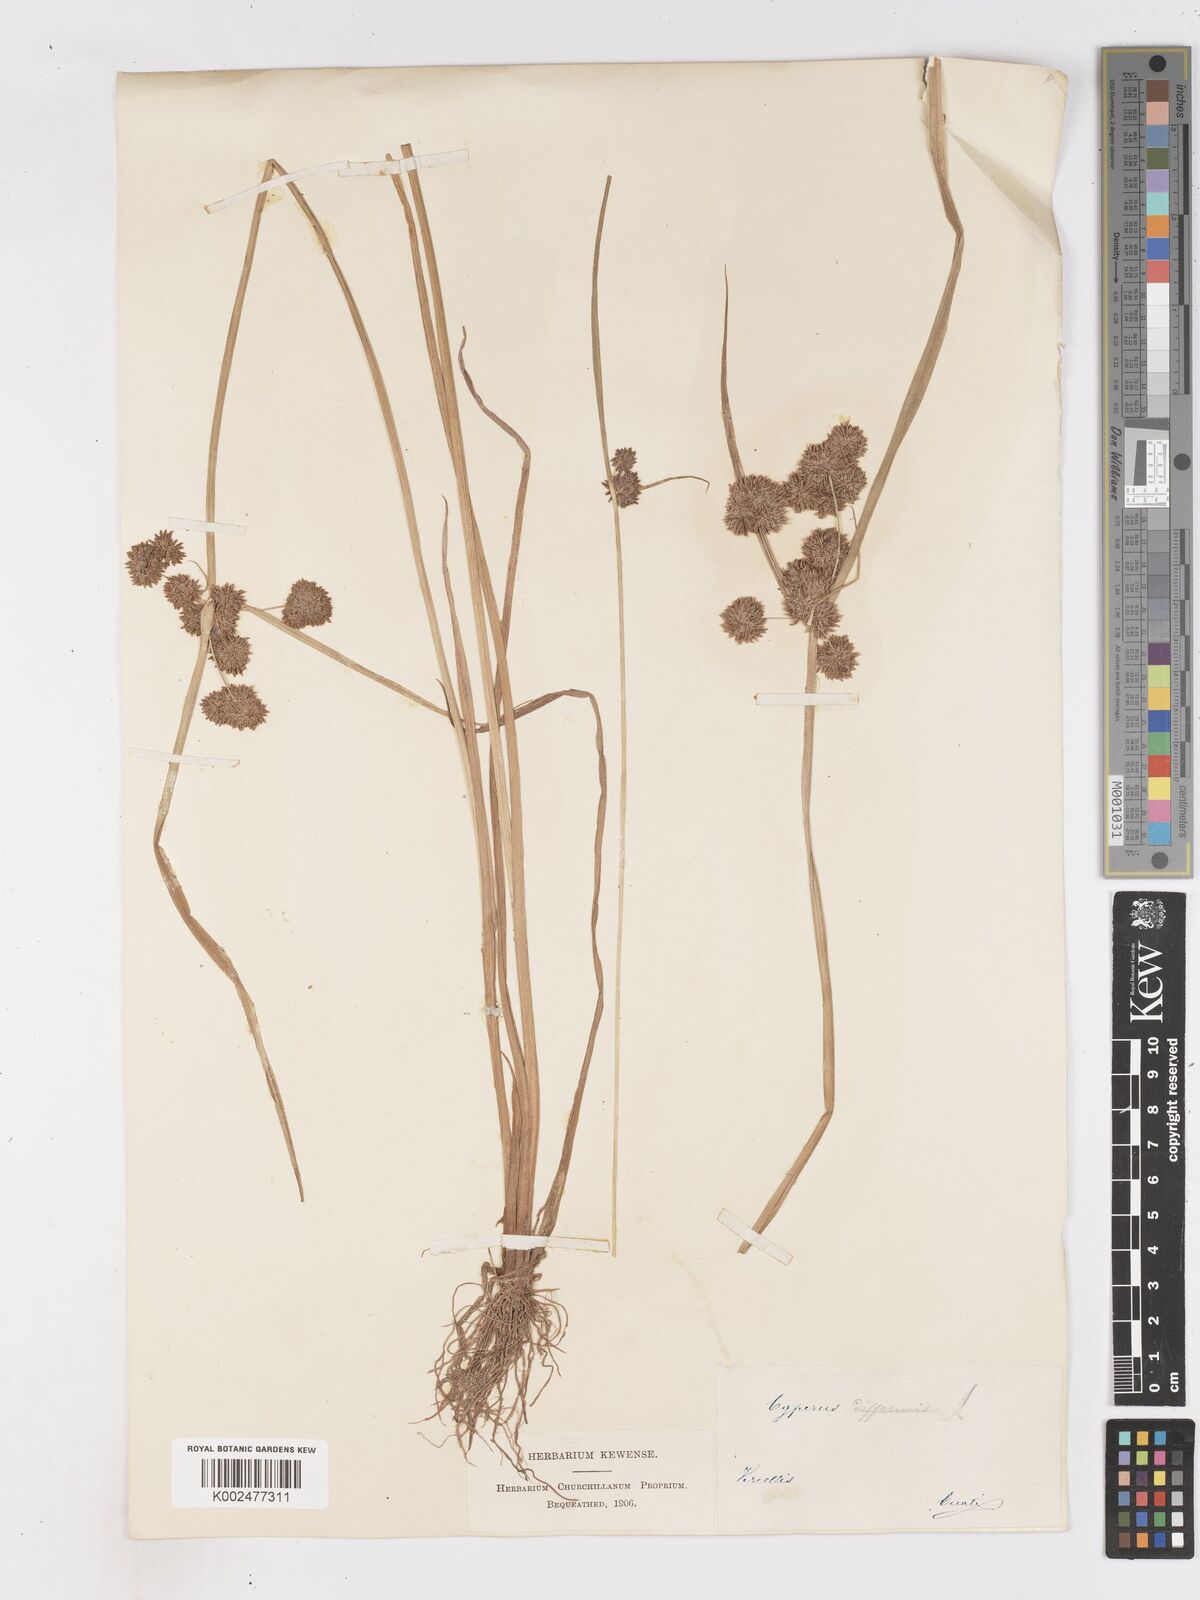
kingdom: Plantae
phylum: Tracheophyta
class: Liliopsida
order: Poales
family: Cyperaceae
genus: Cyperus
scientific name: Cyperus difformis
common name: Variable flatsedge
